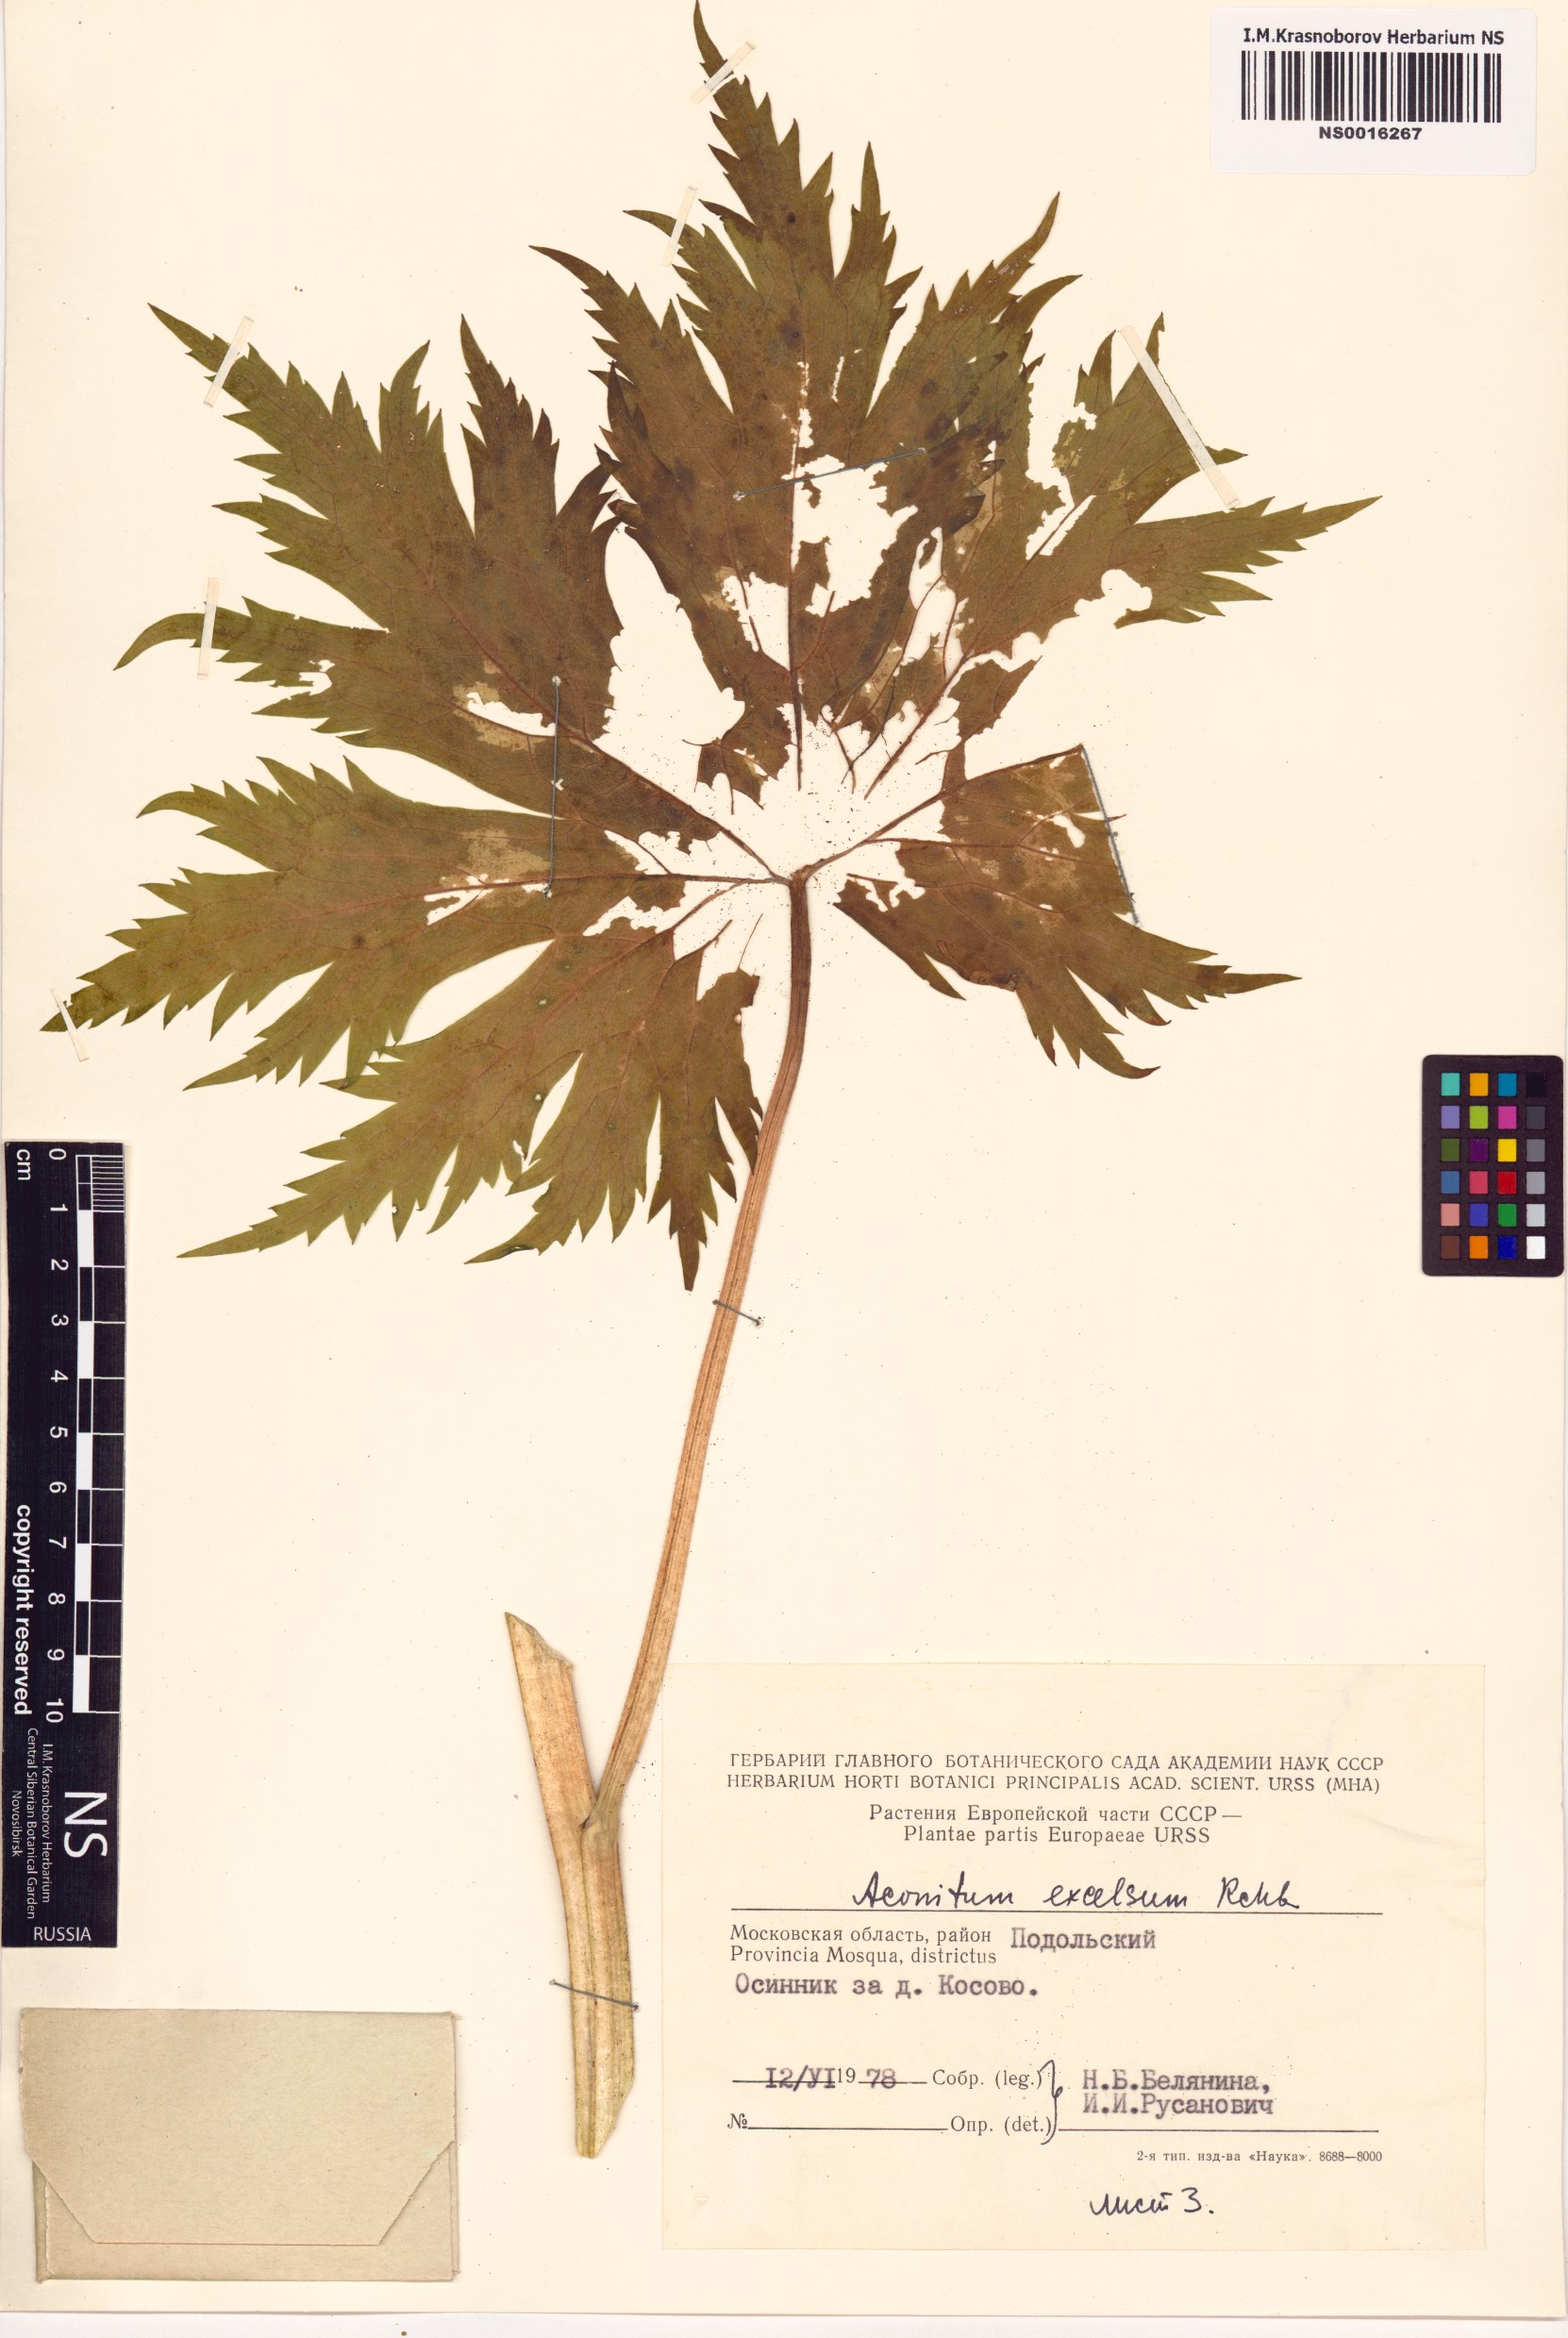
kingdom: Plantae
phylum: Tracheophyta
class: Magnoliopsida
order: Ranunculales
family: Ranunculaceae
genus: Aconitum
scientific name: Aconitum septentrionale
